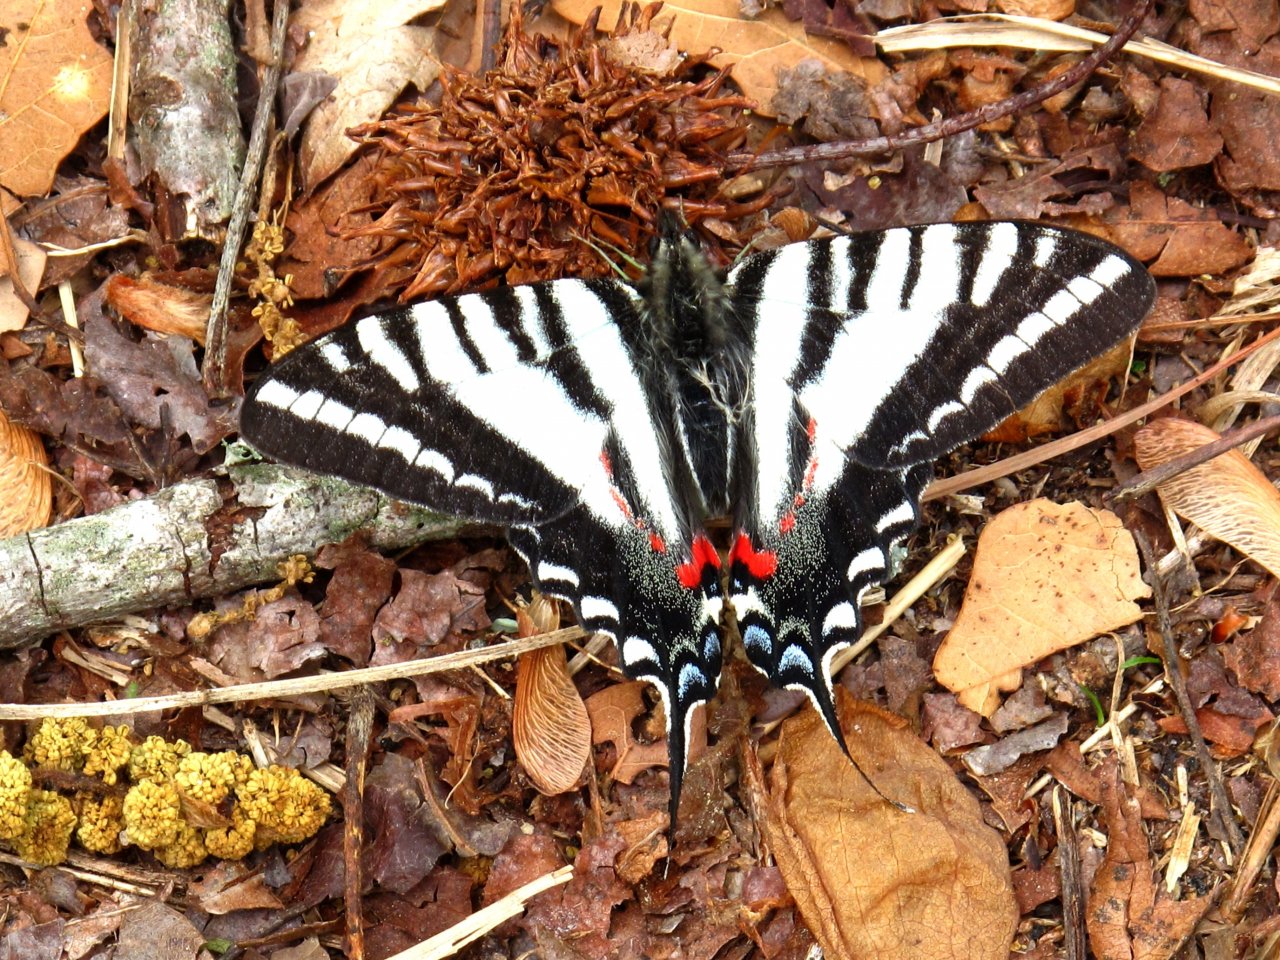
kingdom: Animalia
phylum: Arthropoda
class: Insecta
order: Lepidoptera
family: Papilionidae
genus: Protographium
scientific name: Protographium marcellus
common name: Zebra Swallowtail
